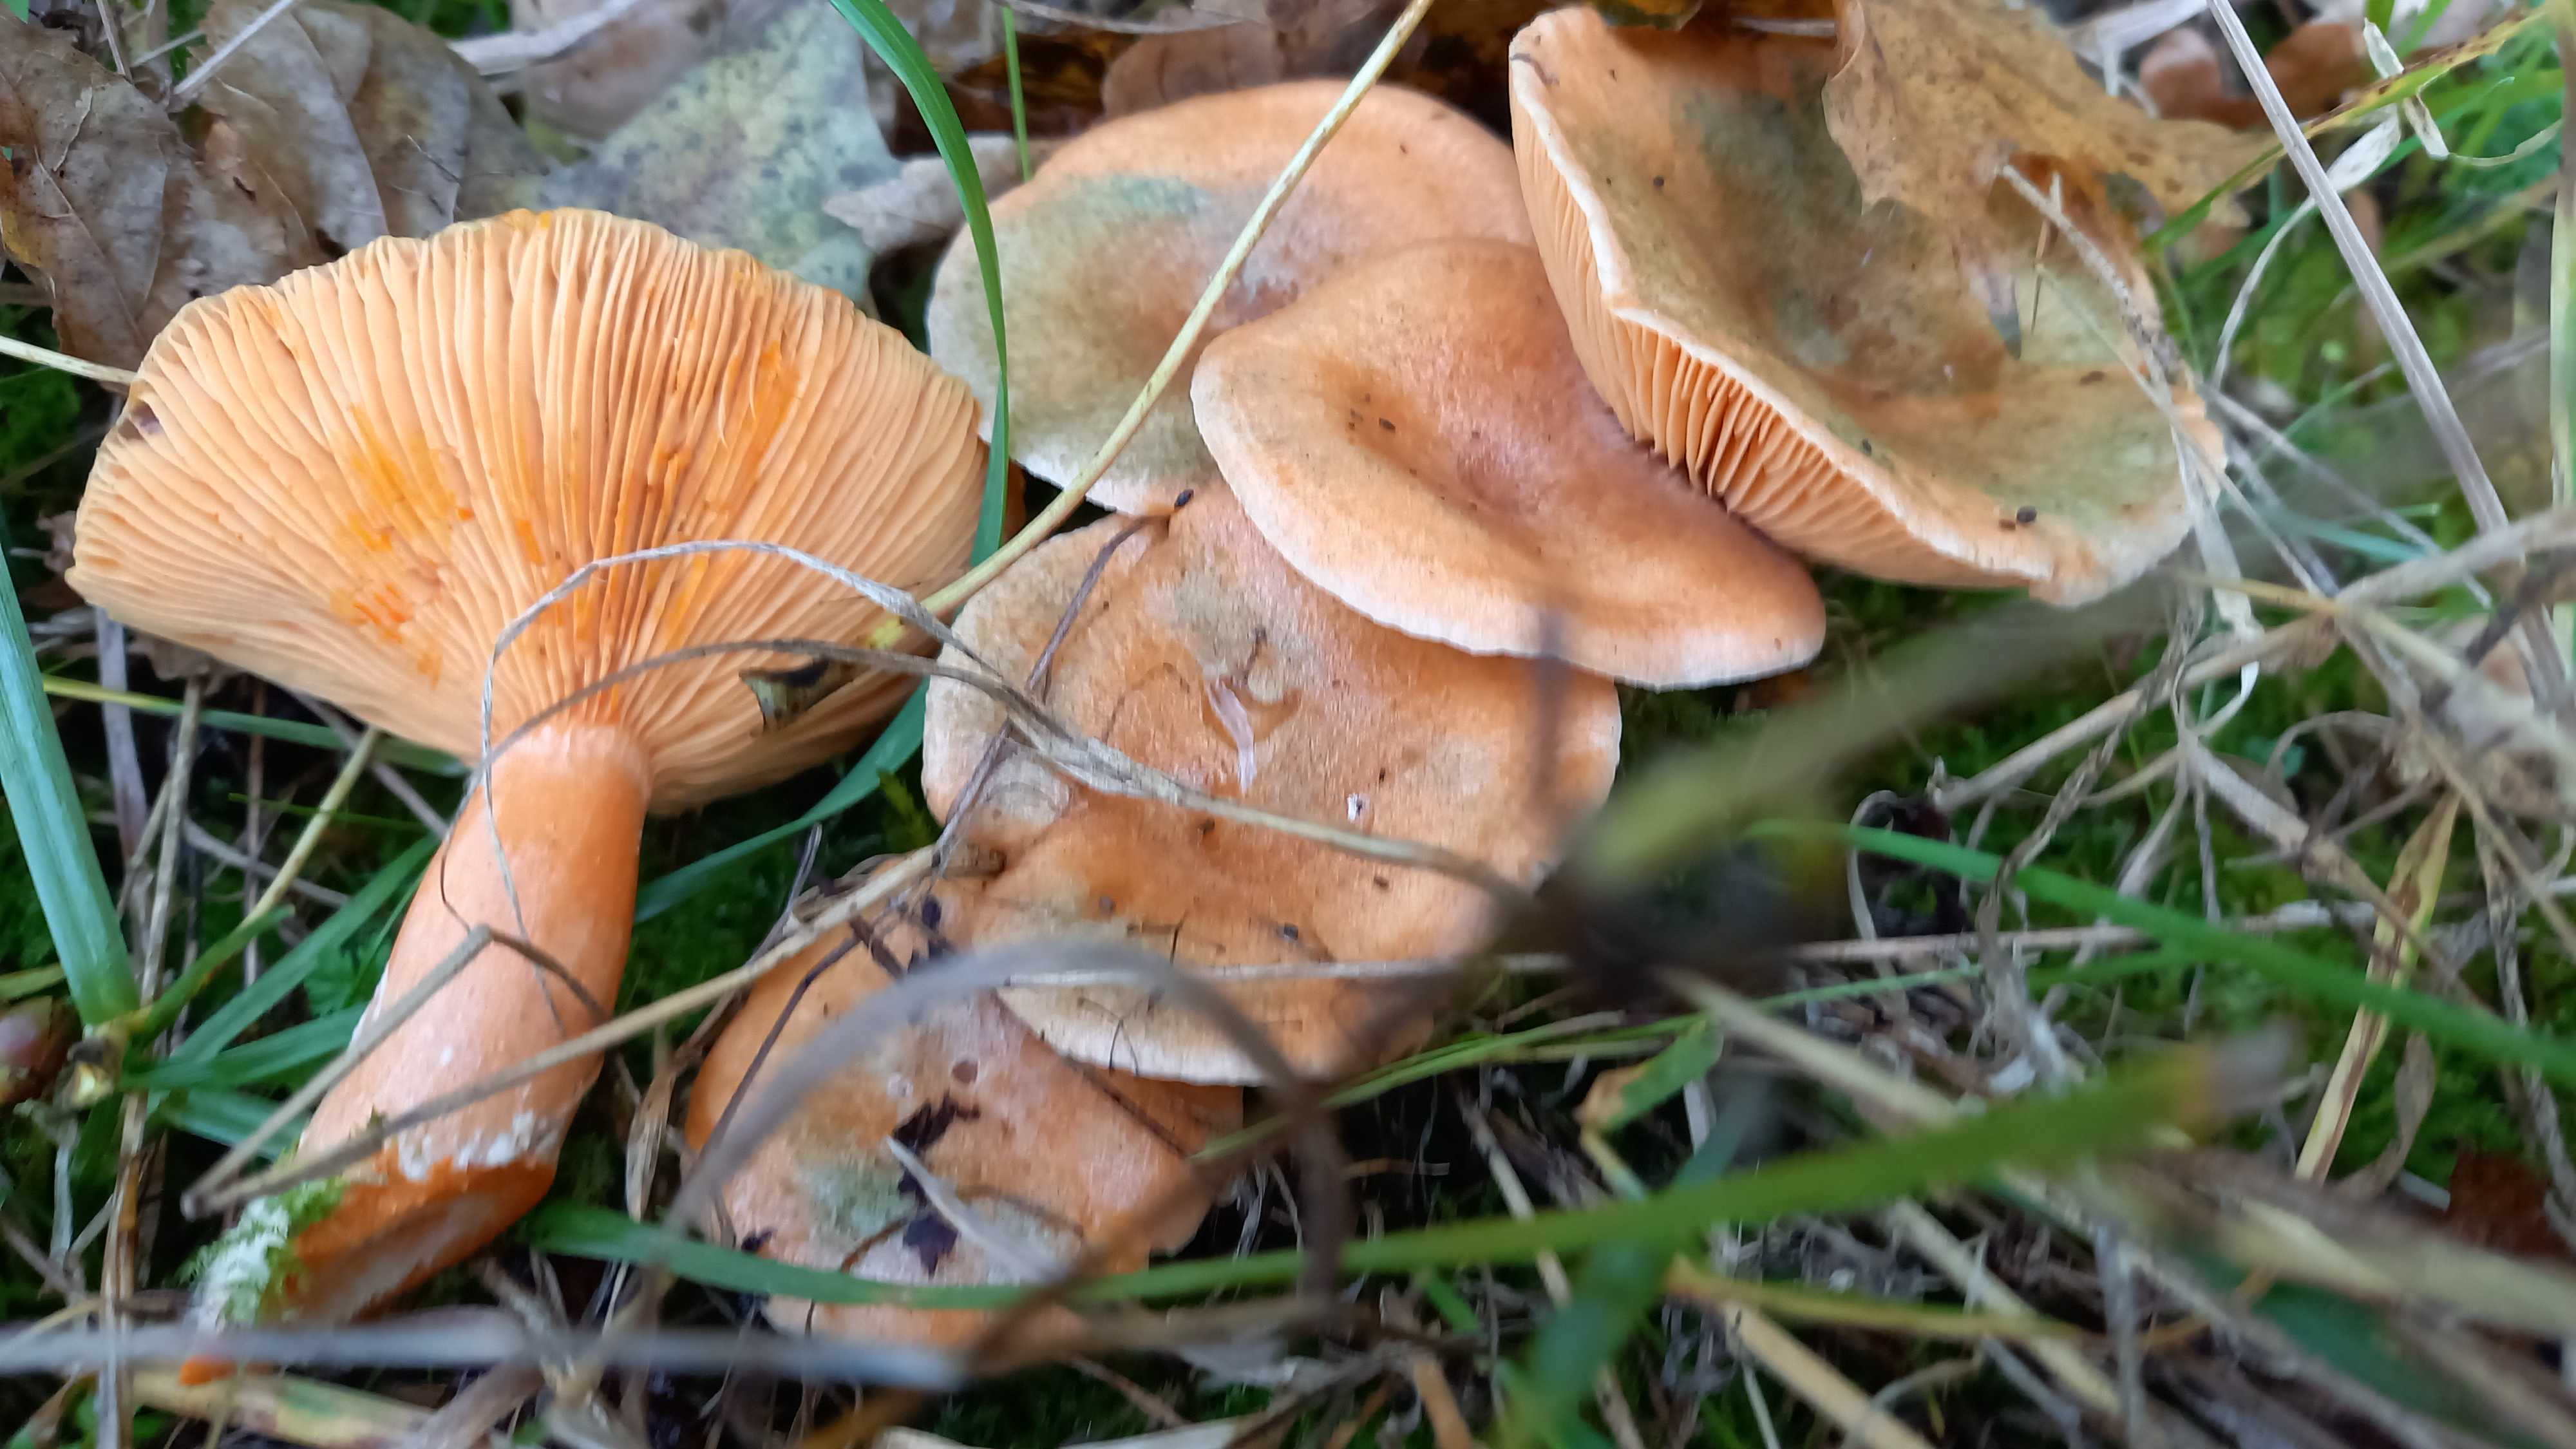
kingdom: Fungi
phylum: Basidiomycota
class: Agaricomycetes
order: Russulales
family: Russulaceae
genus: Lactarius
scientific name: Lactarius deterrimus
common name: gran-mælkehat
